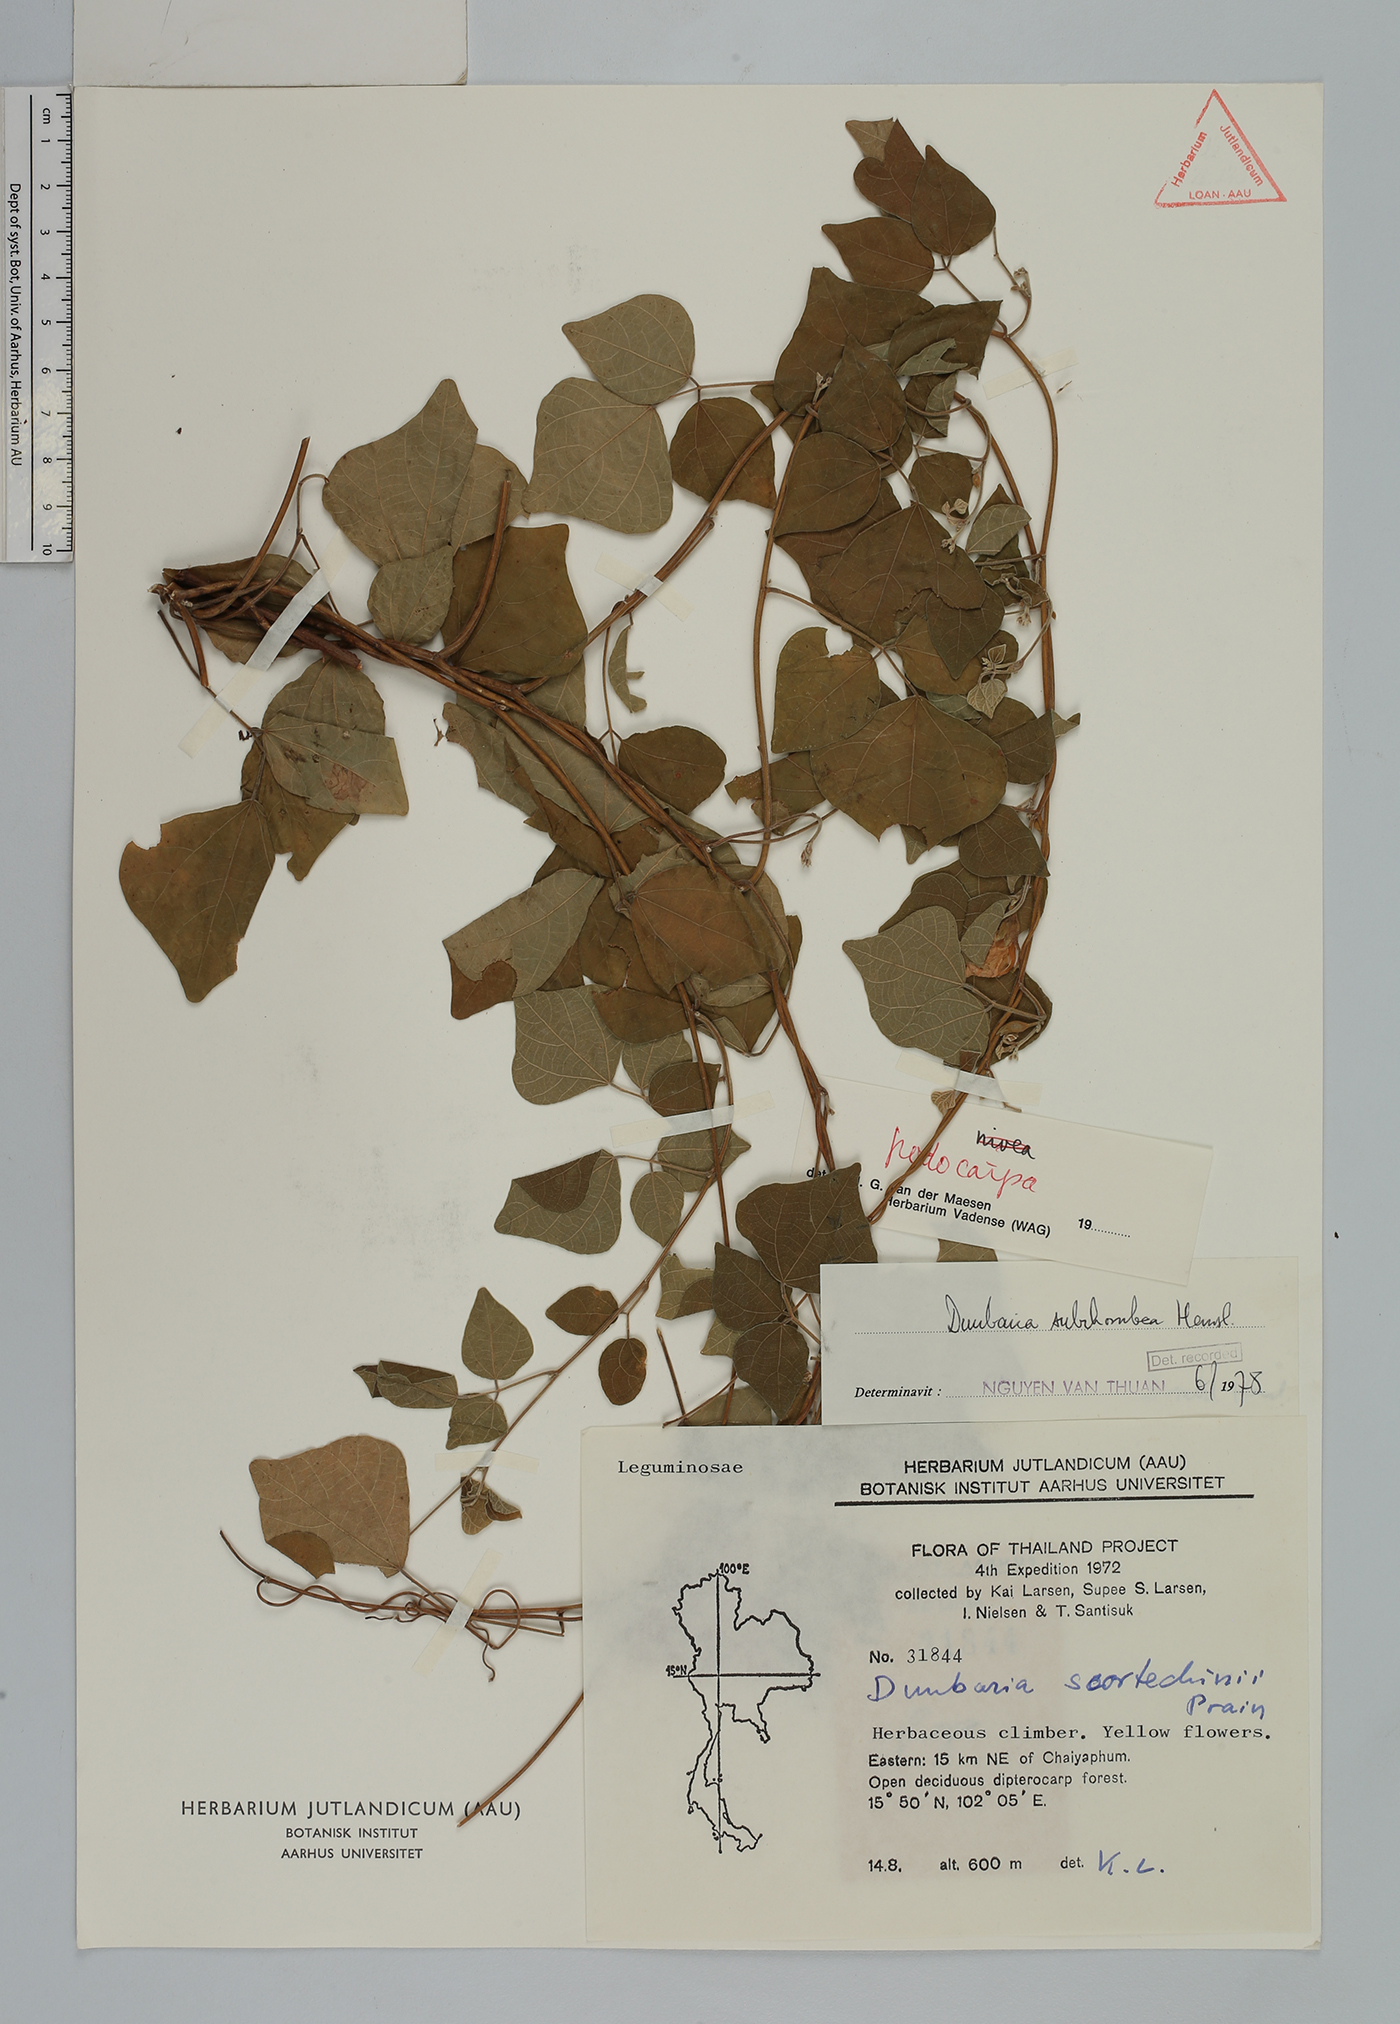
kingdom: Plantae
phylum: Tracheophyta
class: Magnoliopsida
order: Fabales
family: Fabaceae
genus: Dunbaria
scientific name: Dunbaria podocarpa
